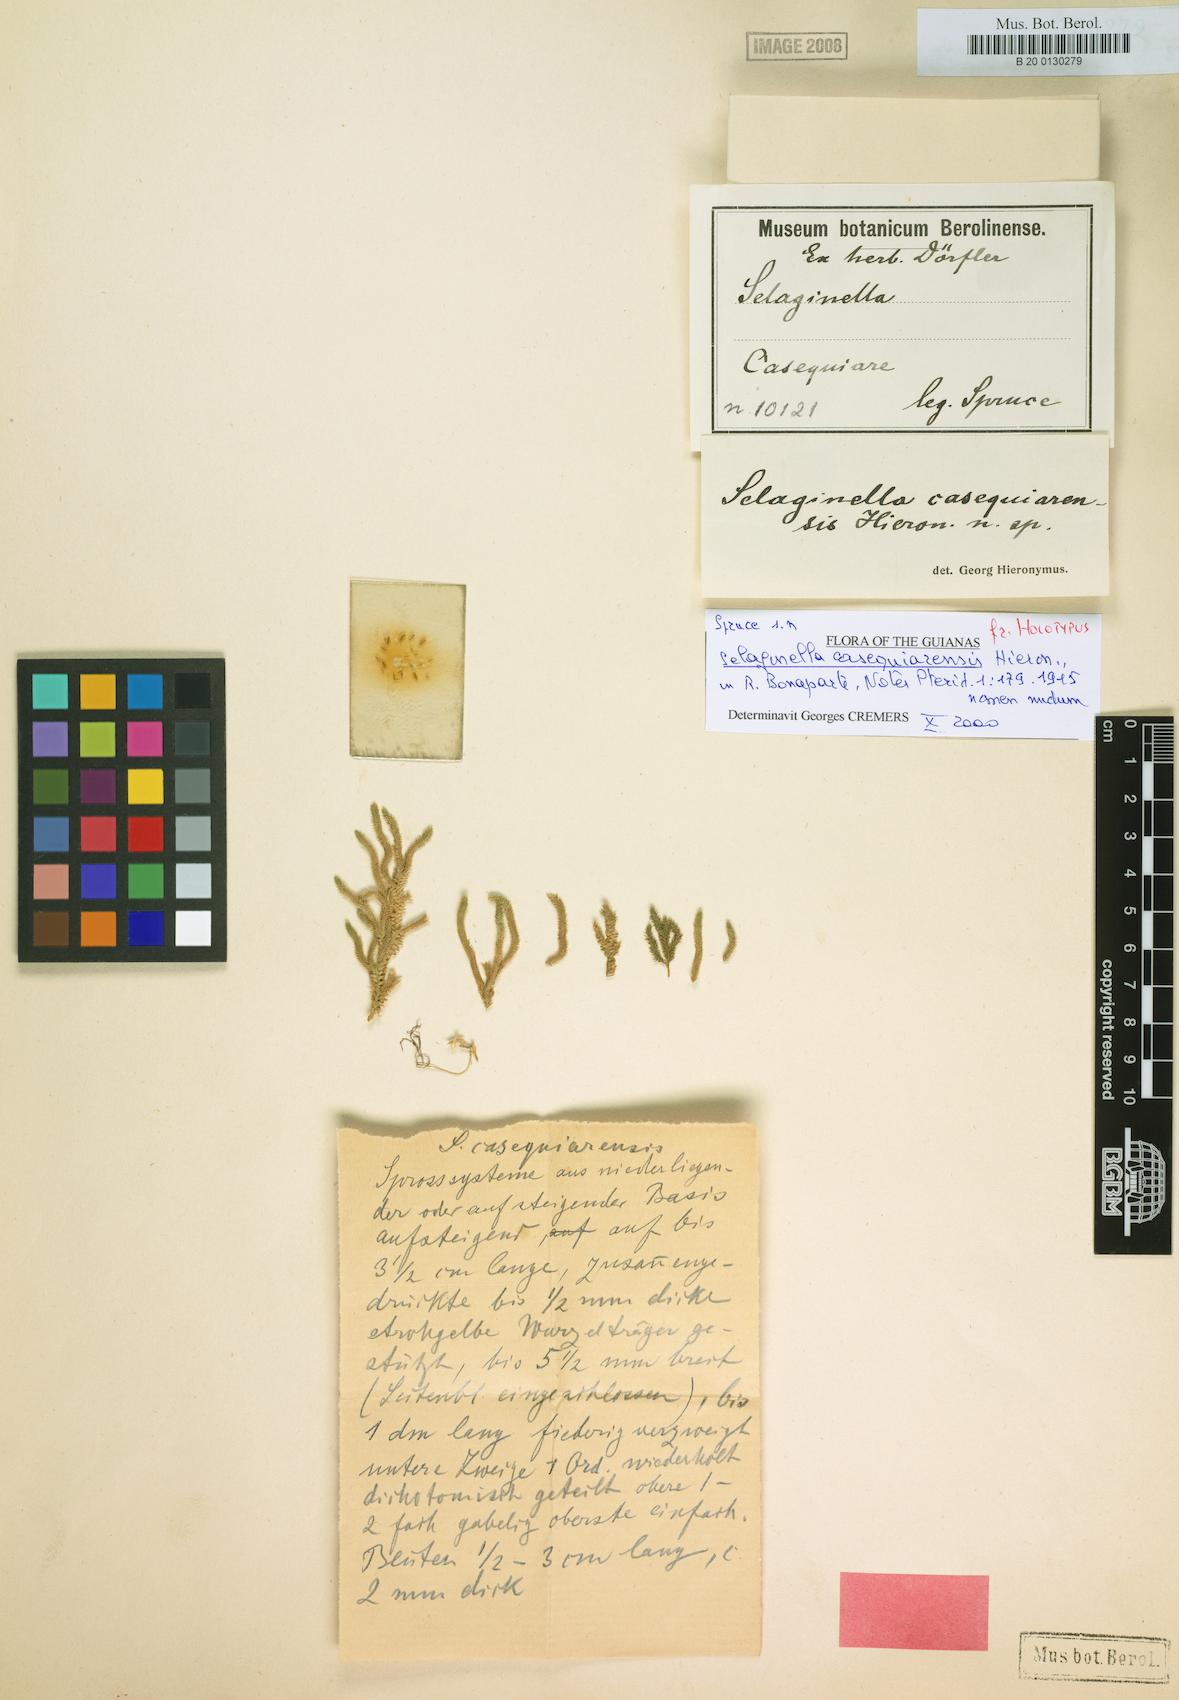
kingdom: Plantae
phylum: Tracheophyta
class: Lycopodiopsida
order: Selaginellales
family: Selaginellaceae
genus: Selaginella
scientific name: Selaginella producta
